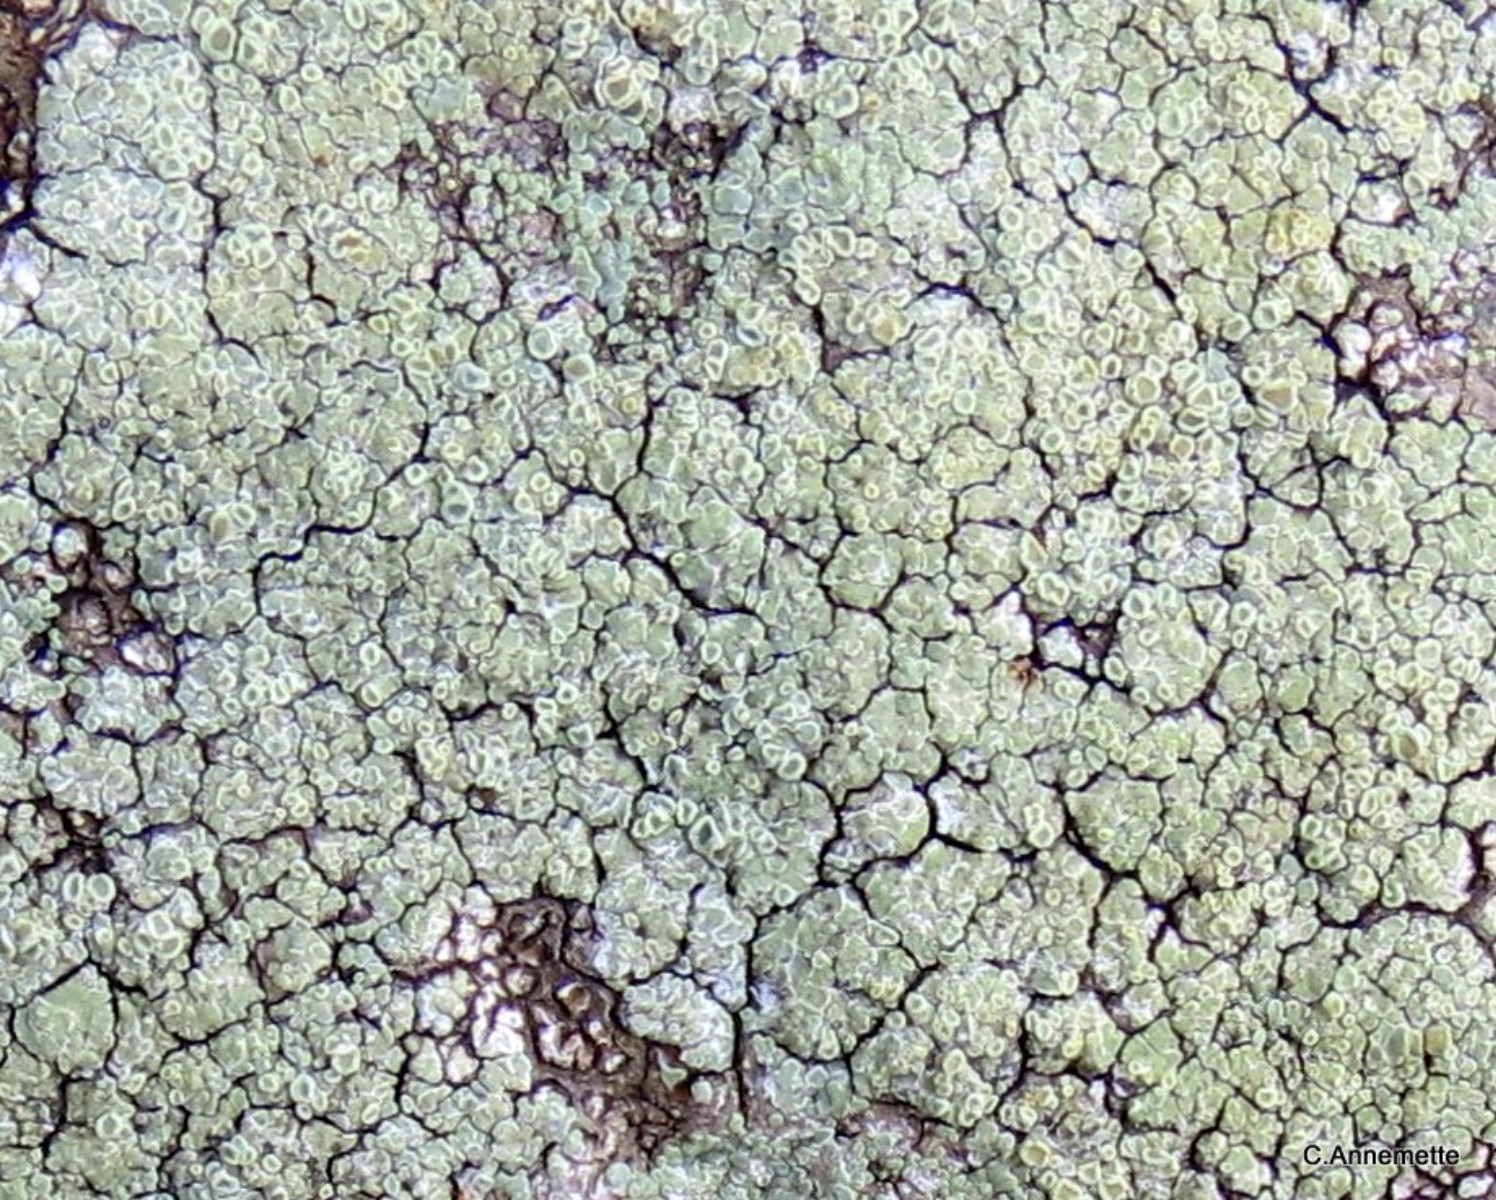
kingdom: Fungi
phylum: Ascomycota
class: Lecanoromycetes
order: Lecanorales
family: Lecanoraceae
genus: Lecanora
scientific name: Lecanora polytropa
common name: bleggrøn kantskivelav
